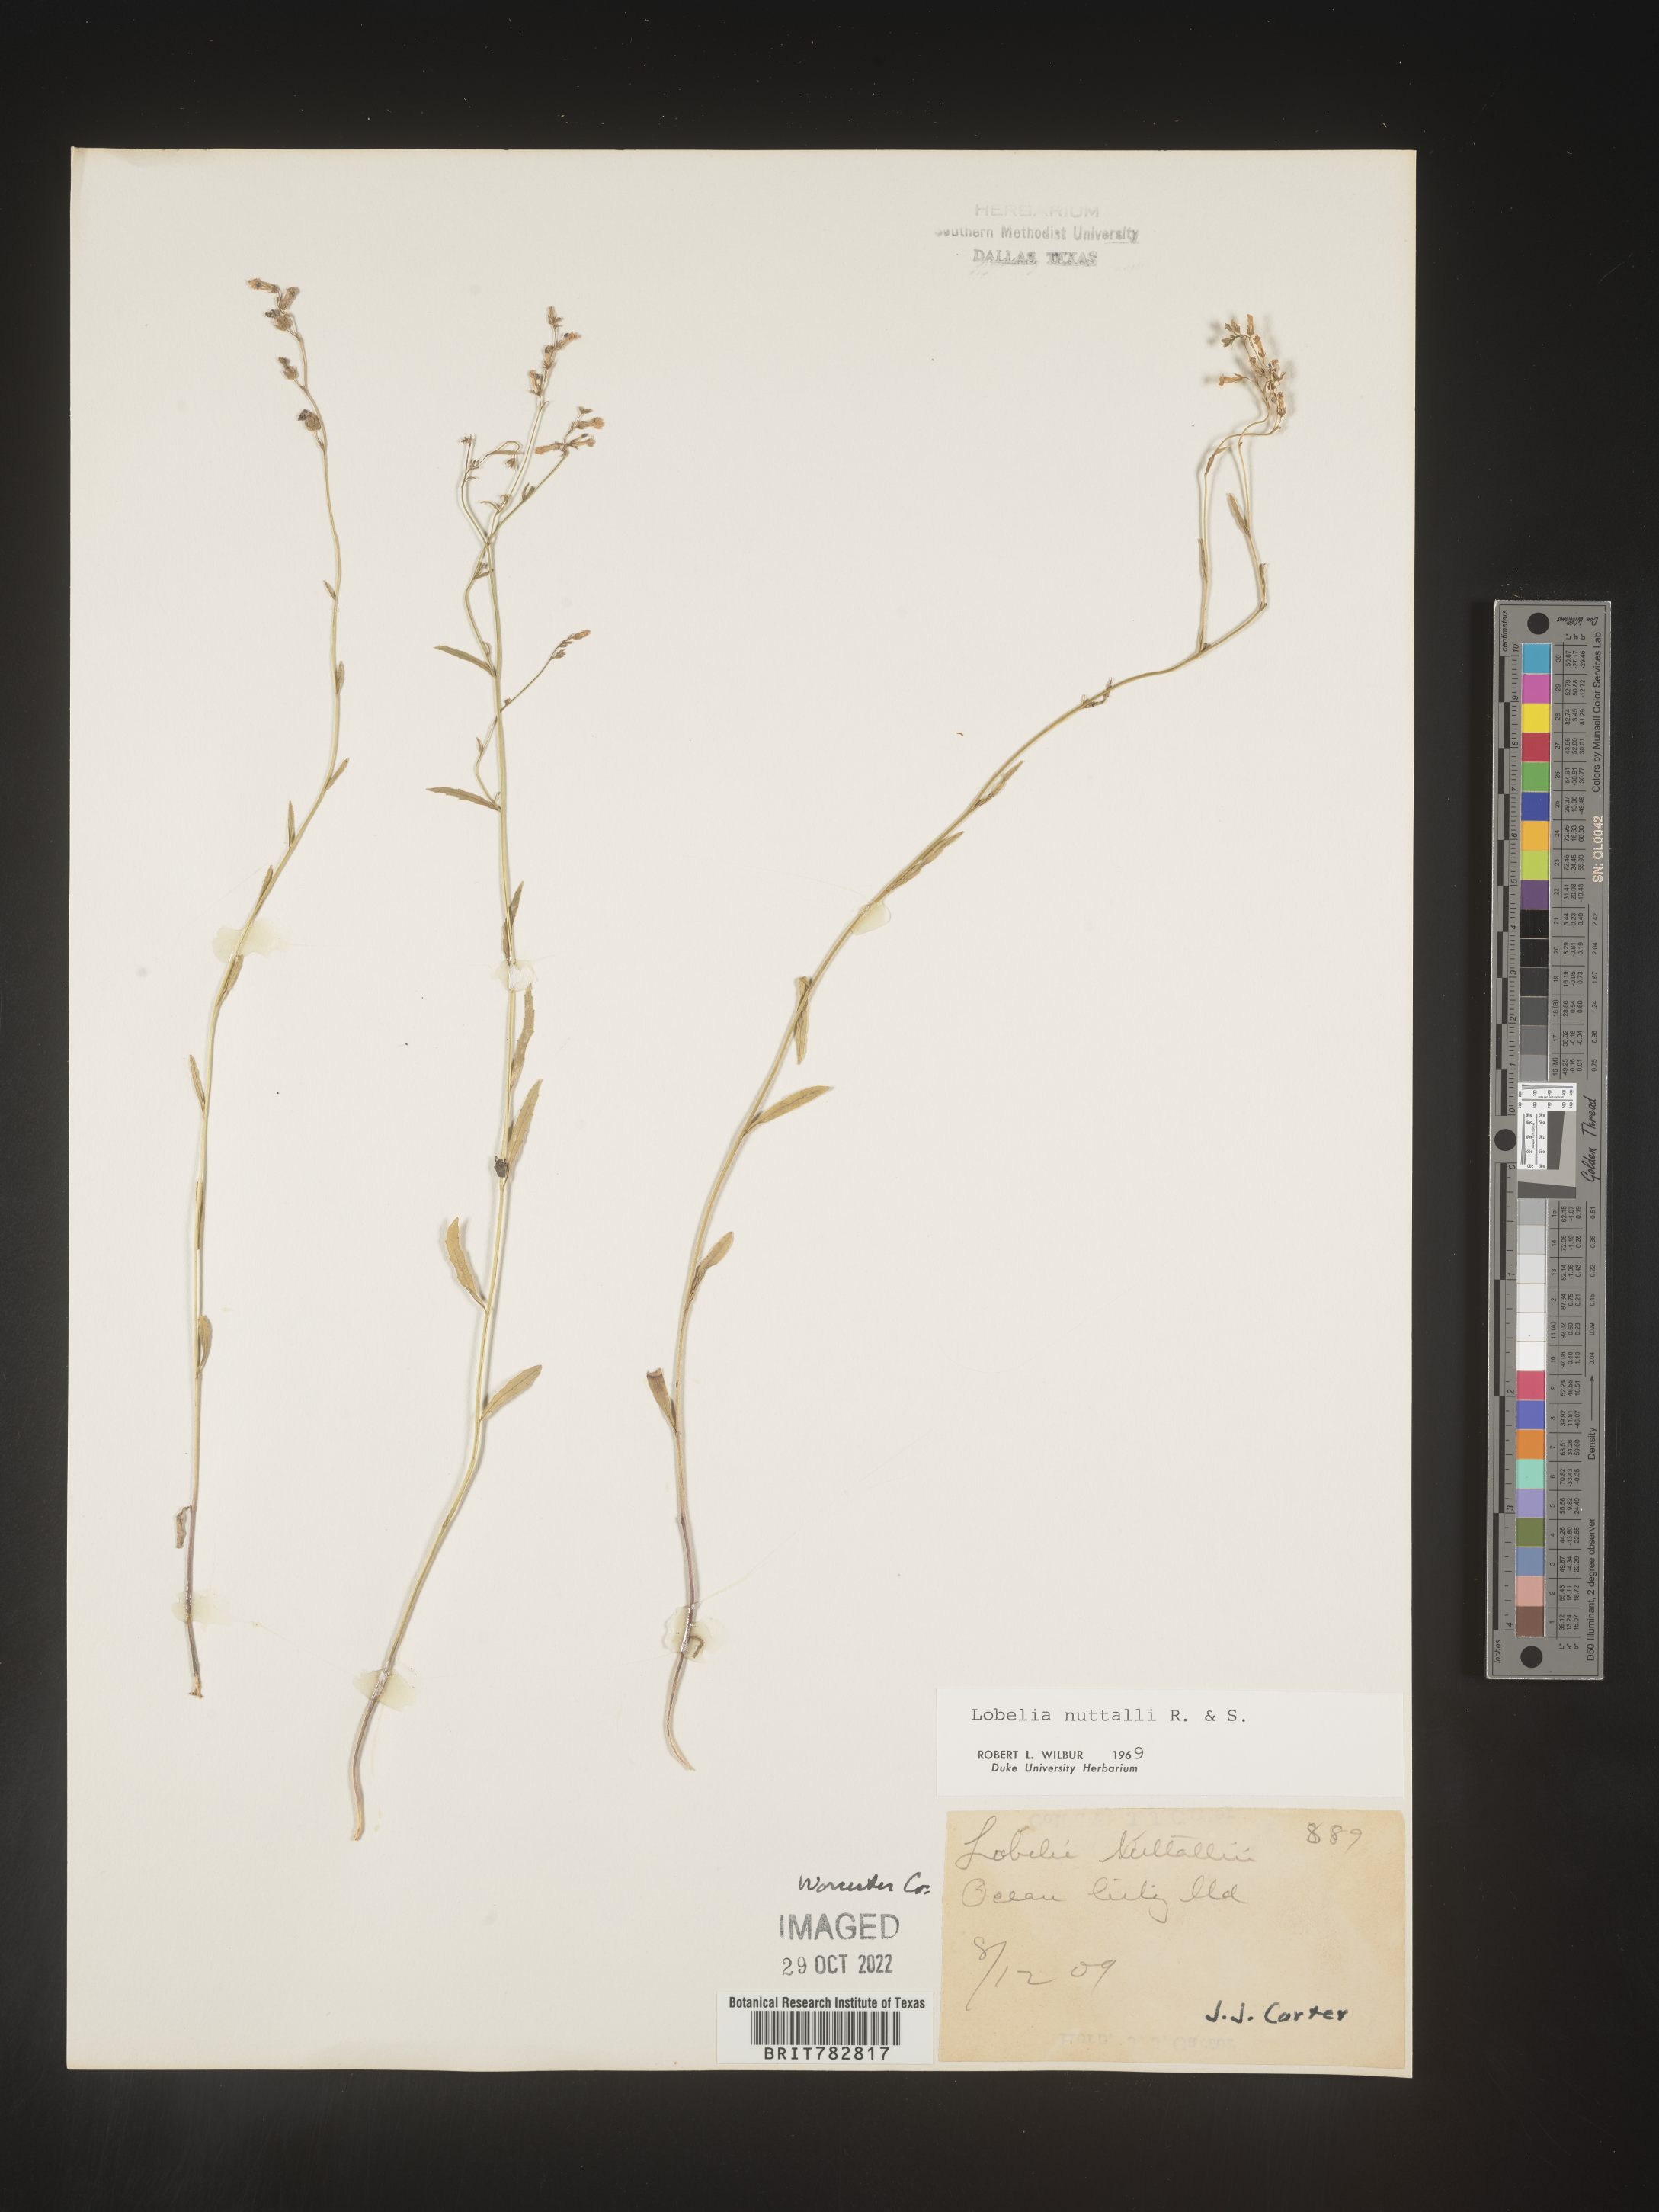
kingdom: Plantae
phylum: Tracheophyta
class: Magnoliopsida
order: Asterales
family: Campanulaceae
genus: Lobelia
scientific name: Lobelia nuttallii
